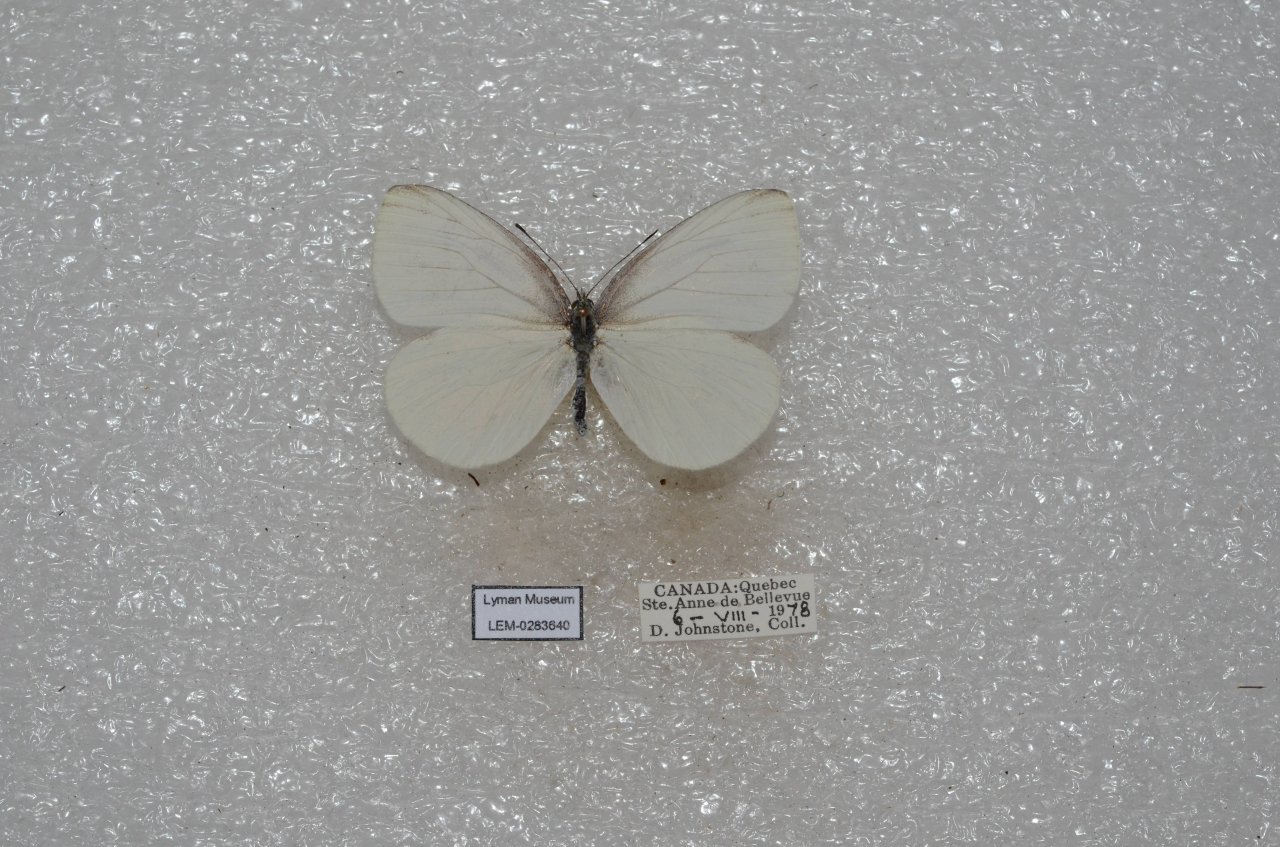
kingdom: Animalia
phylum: Arthropoda
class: Insecta
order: Lepidoptera
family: Pieridae
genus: Pieris
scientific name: Pieris oleracea
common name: Mustard White
